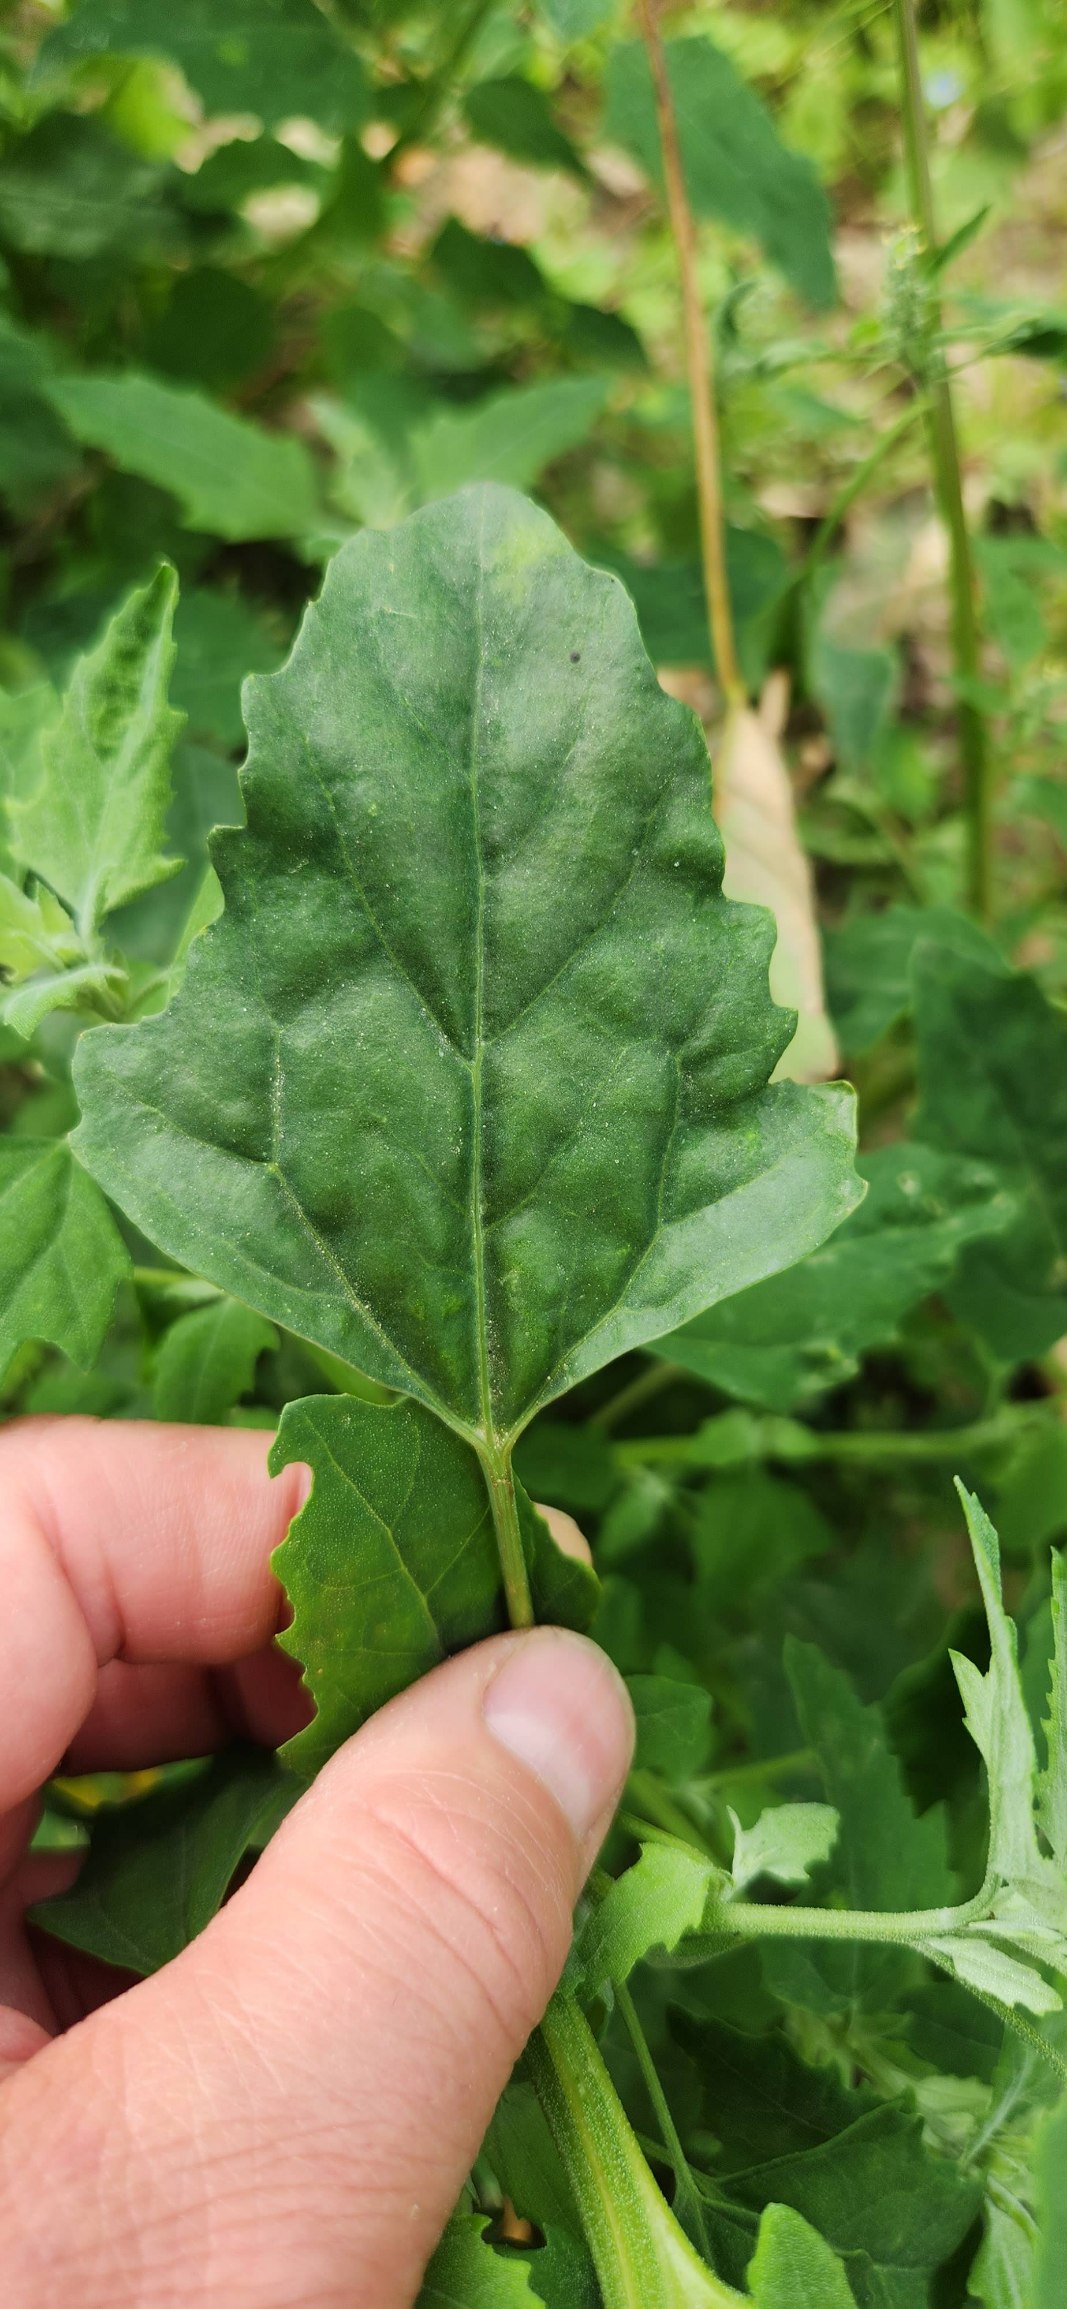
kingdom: Plantae
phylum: Tracheophyta
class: Magnoliopsida
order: Caryophyllales
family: Amaranthaceae
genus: Chenopodium
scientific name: Chenopodium album
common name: Hvidmelet gåsefod
